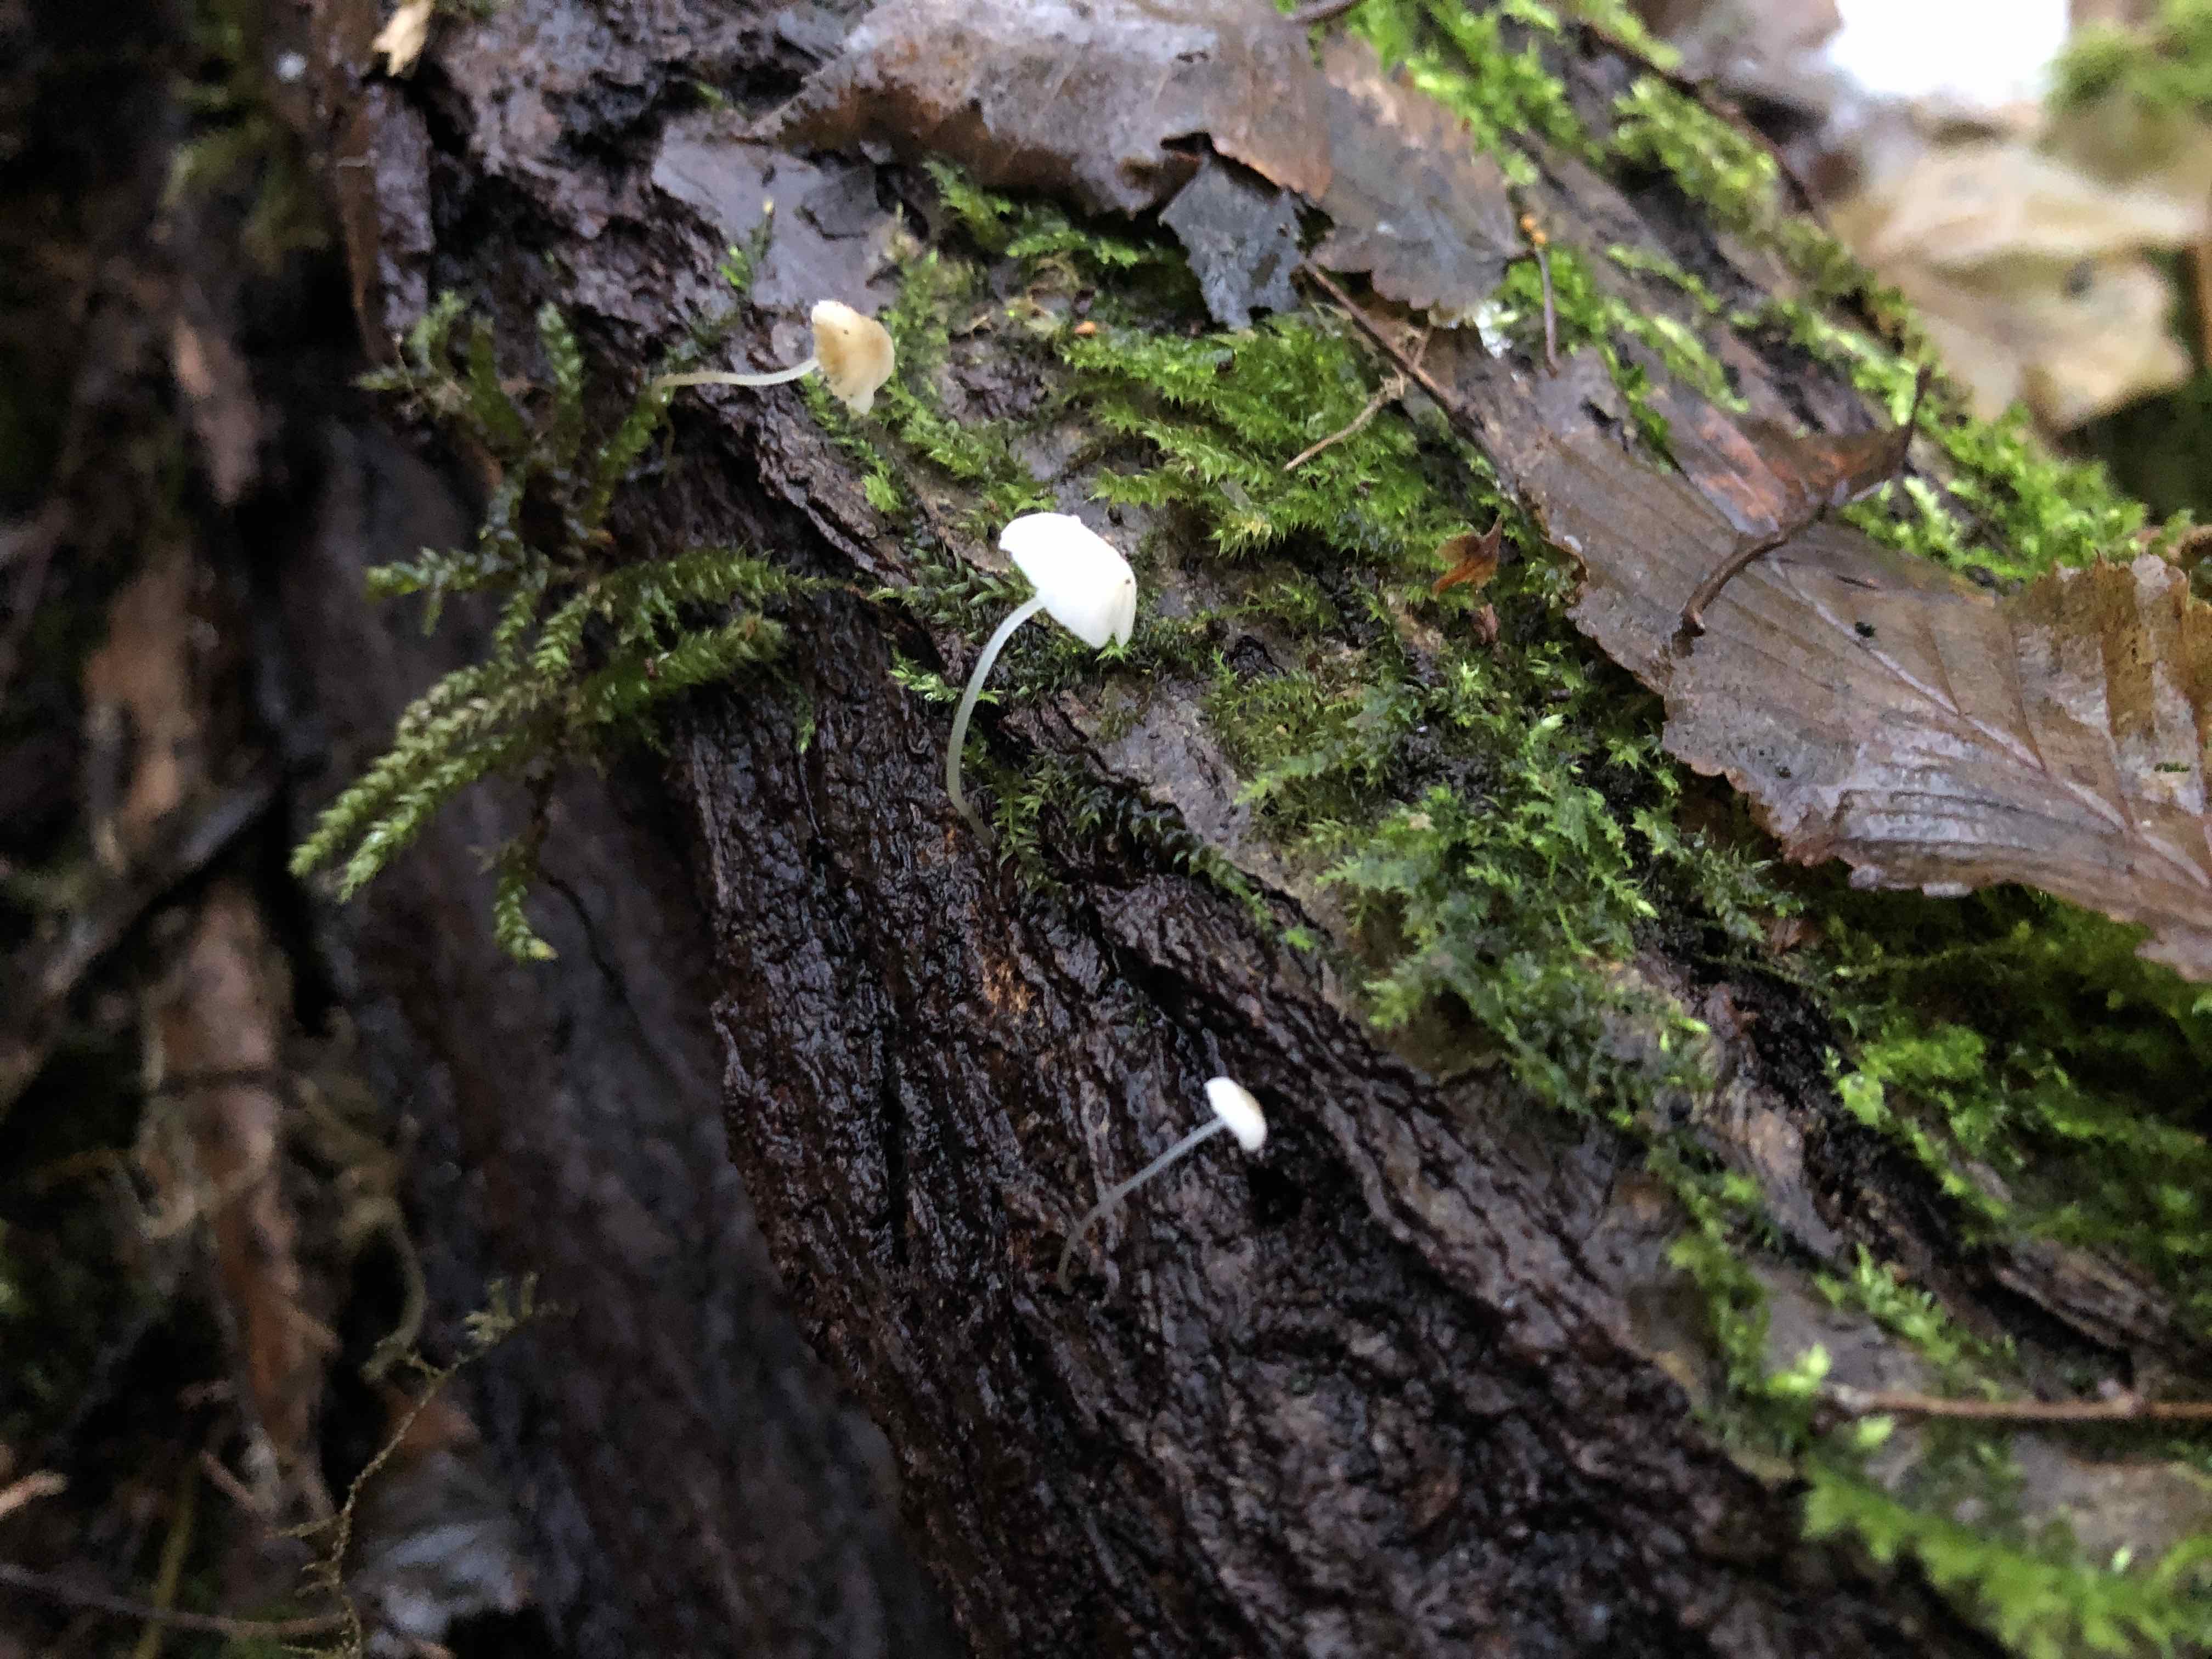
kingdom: Fungi
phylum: Basidiomycota
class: Agaricomycetes
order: Agaricales
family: Porotheleaceae
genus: Phloeomana
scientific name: Phloeomana speirea
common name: kvist-huesvamp
